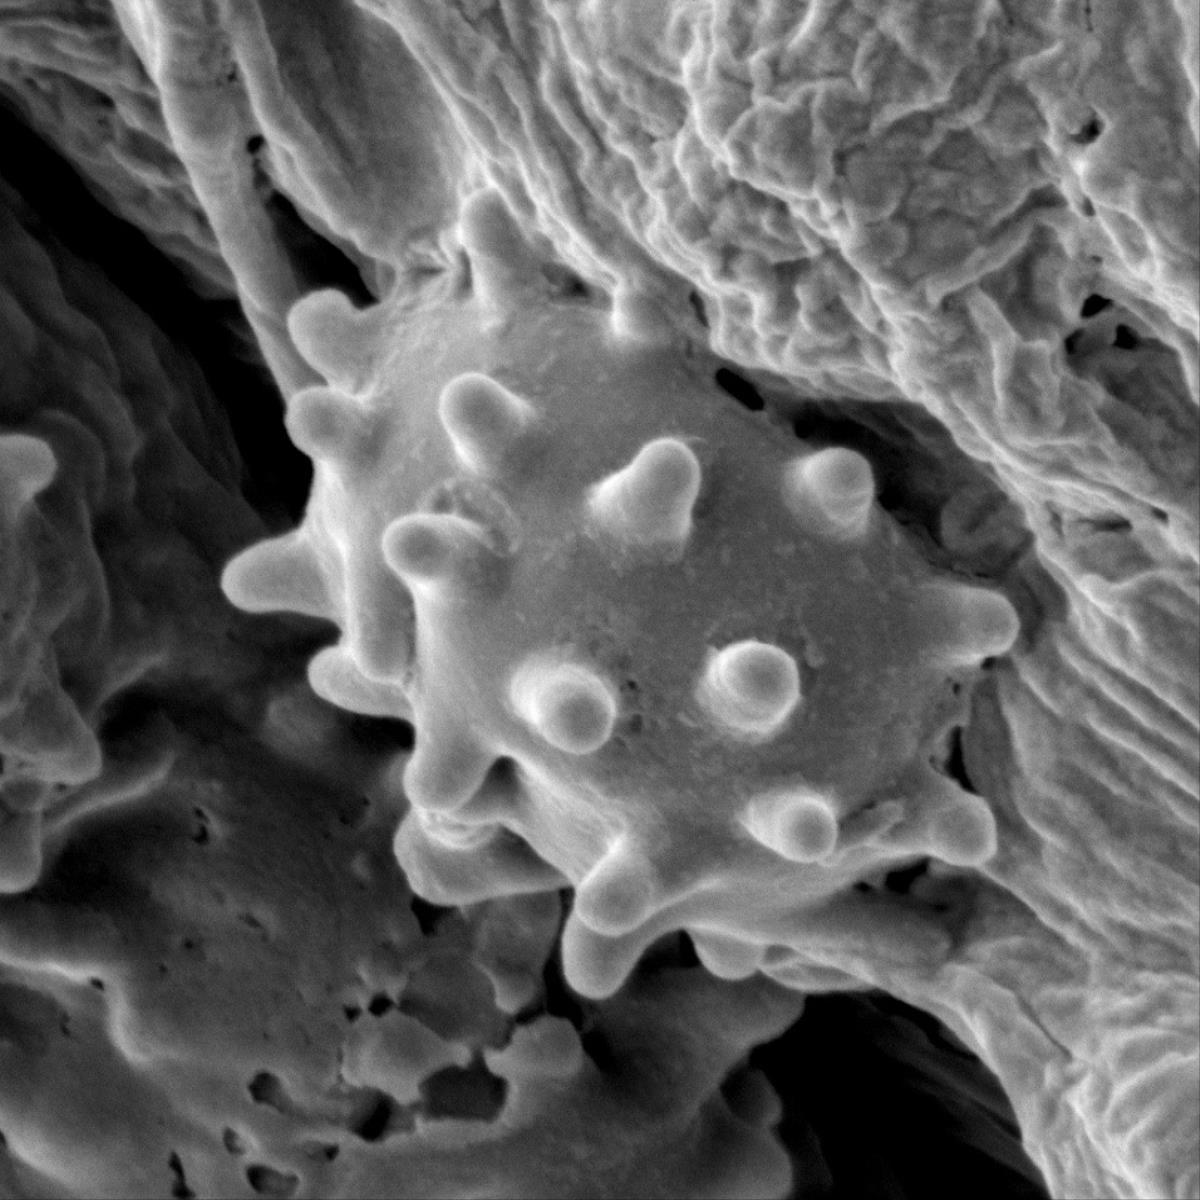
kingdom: Fungi
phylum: Basidiomycota
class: Agaricomycetes
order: Thelephorales
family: Thelephoraceae
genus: Phellodon
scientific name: Phellodon
